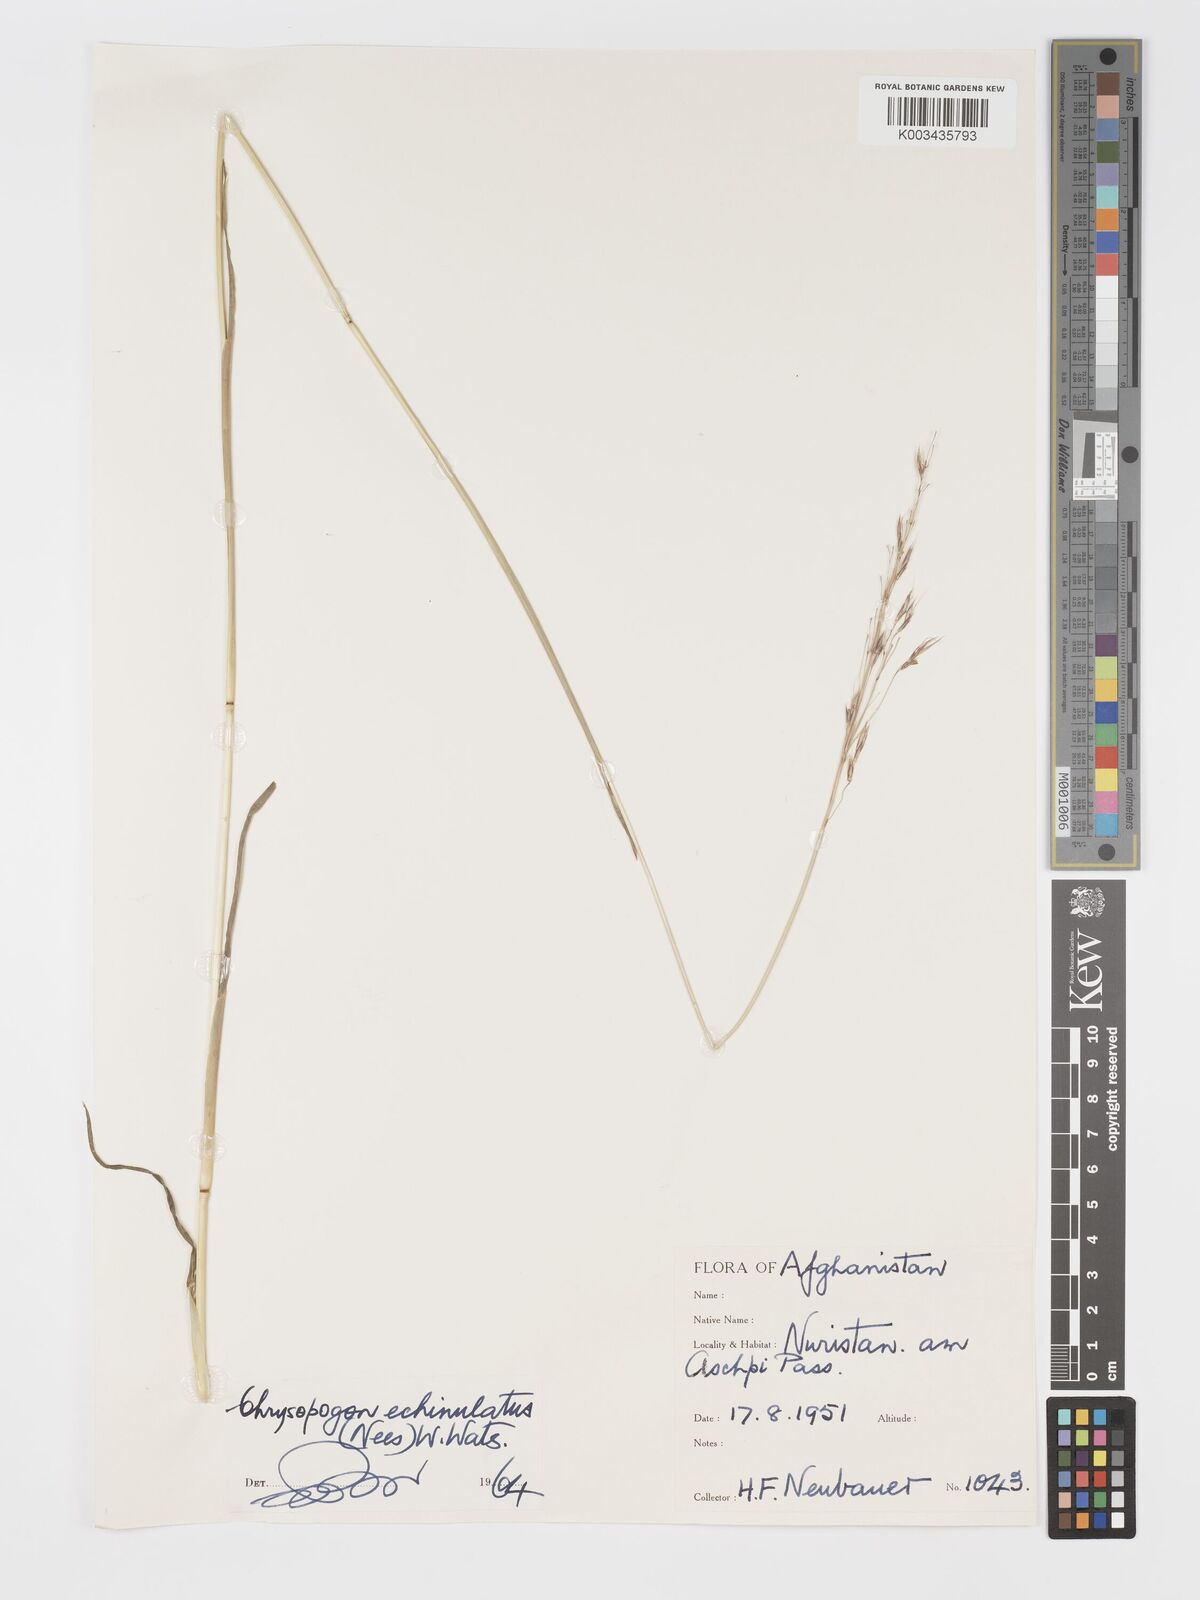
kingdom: Plantae
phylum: Tracheophyta
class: Liliopsida
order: Poales
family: Poaceae
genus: Chrysopogon
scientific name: Chrysopogon gryllus
